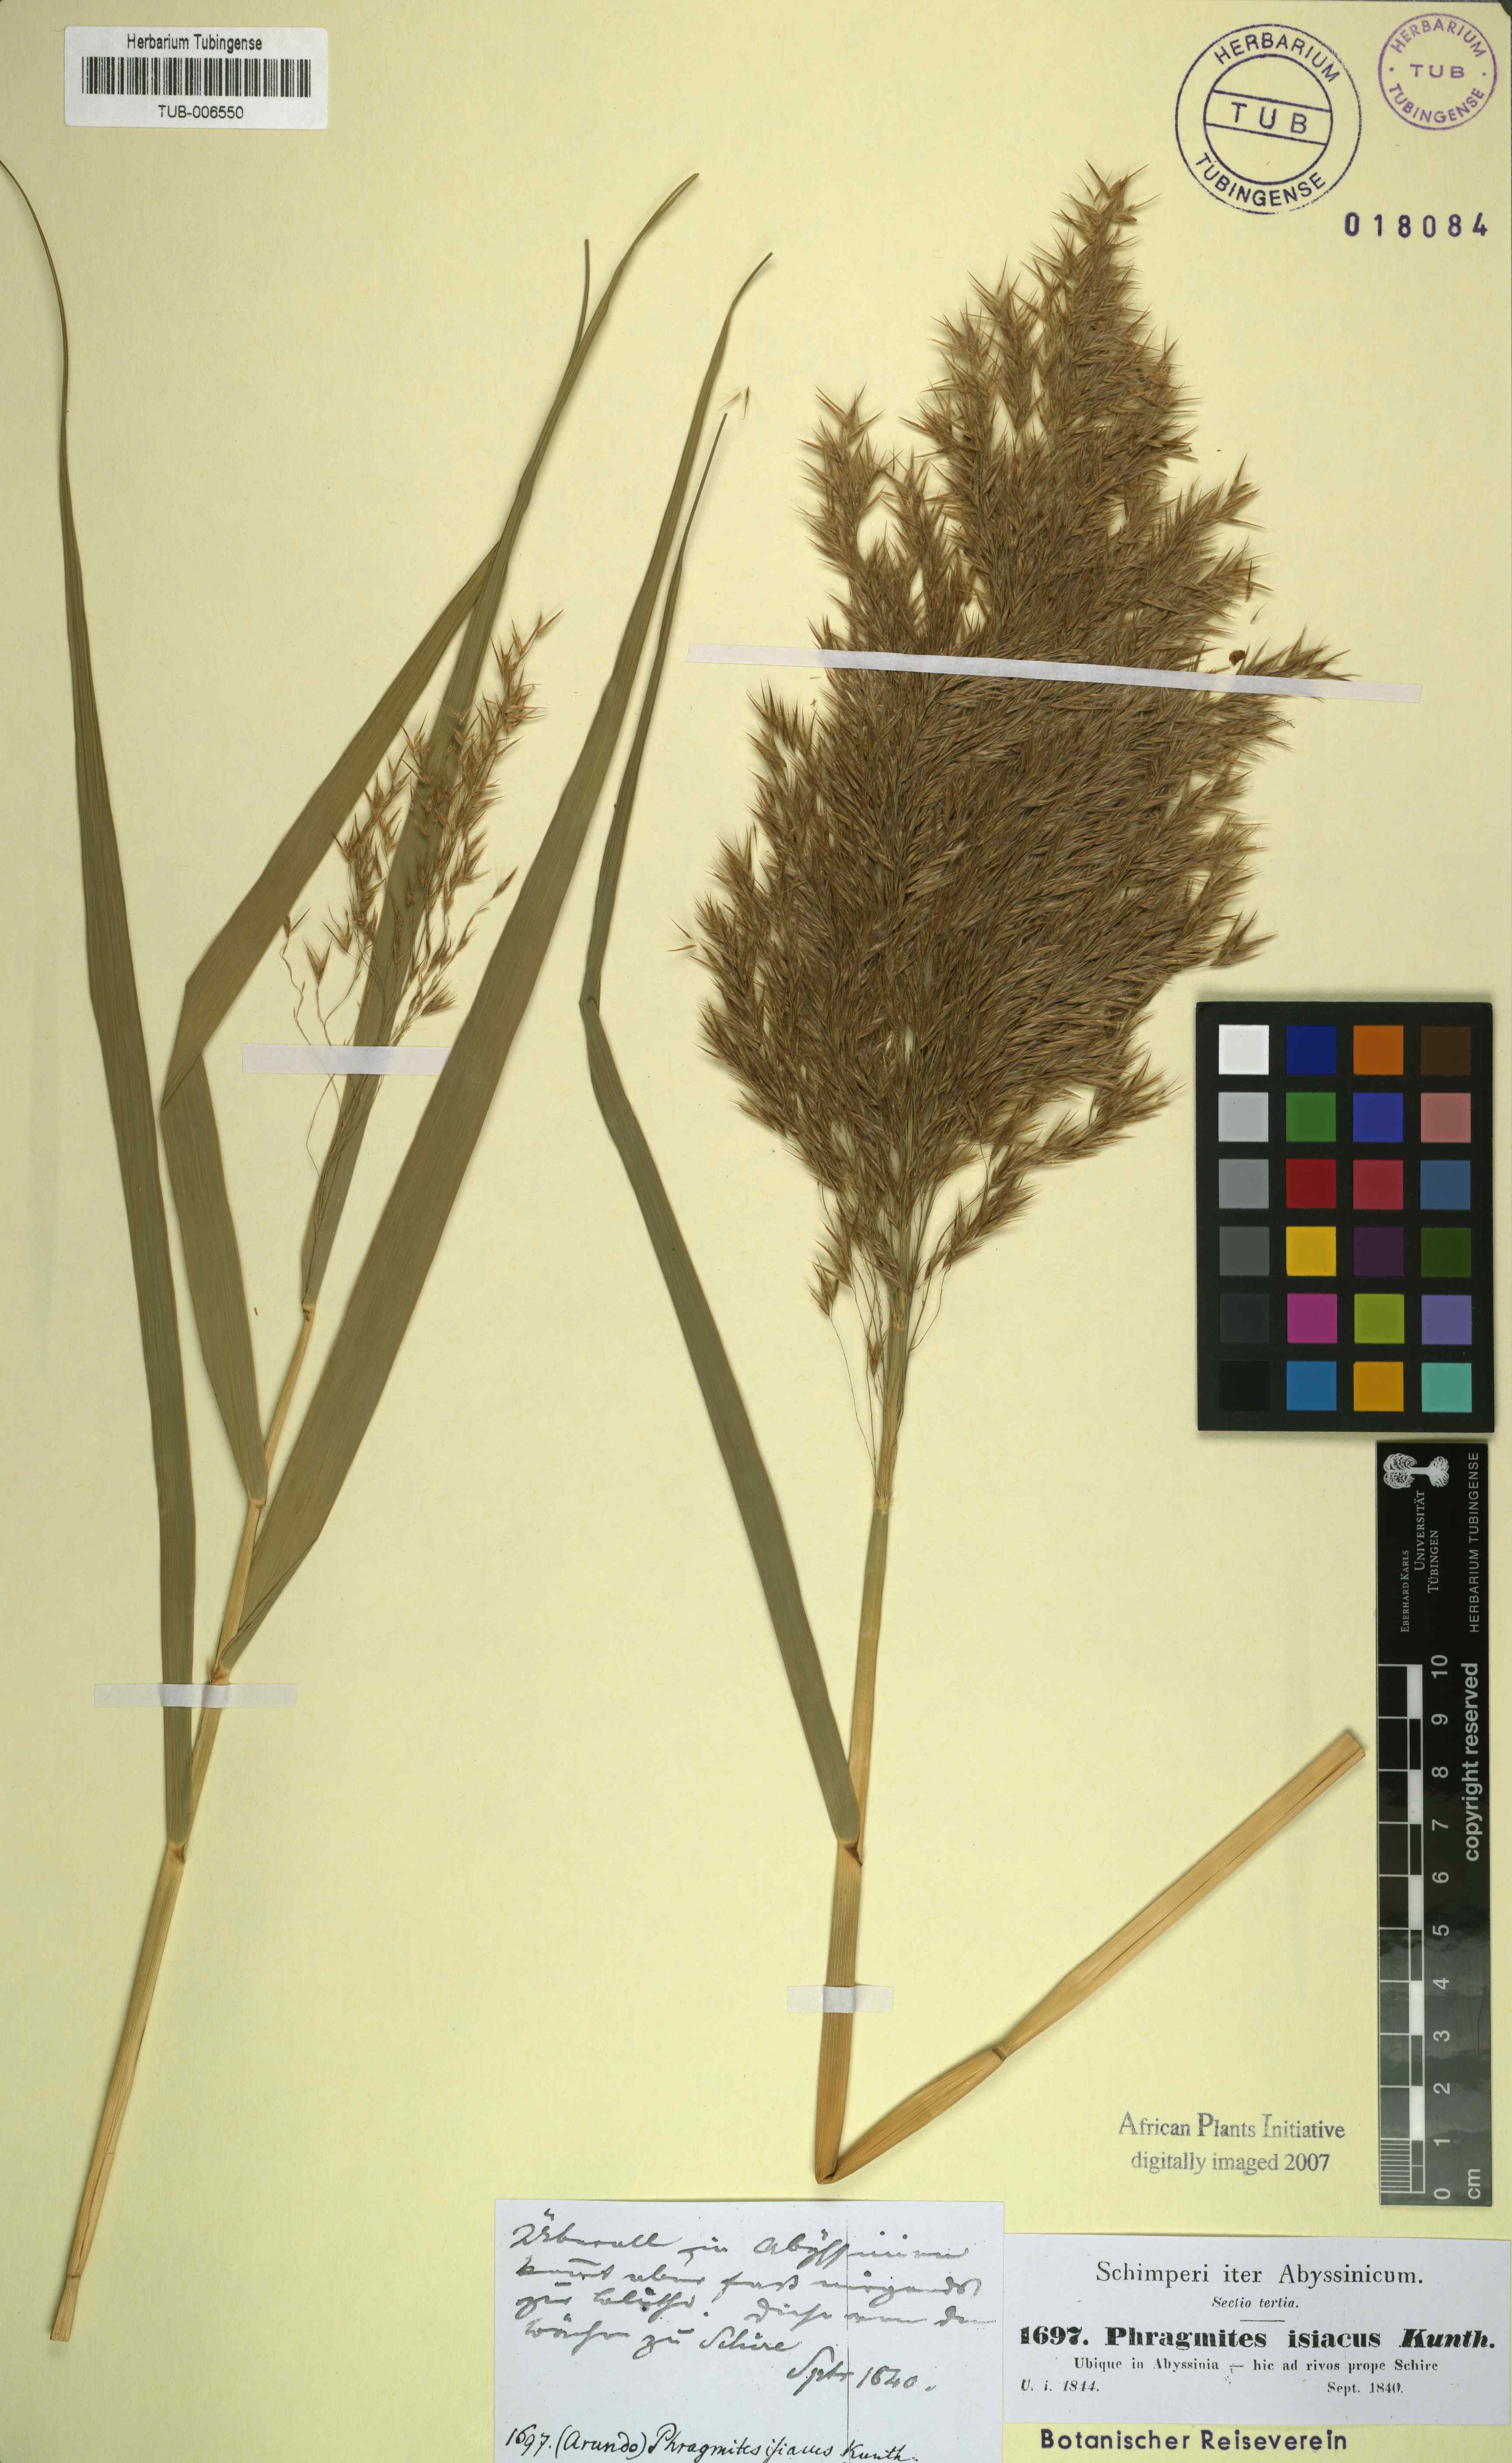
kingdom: Plantae
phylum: Tracheophyta
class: Liliopsida
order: Poales
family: Poaceae
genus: Phragmites
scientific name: Phragmites australis
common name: Common reed
